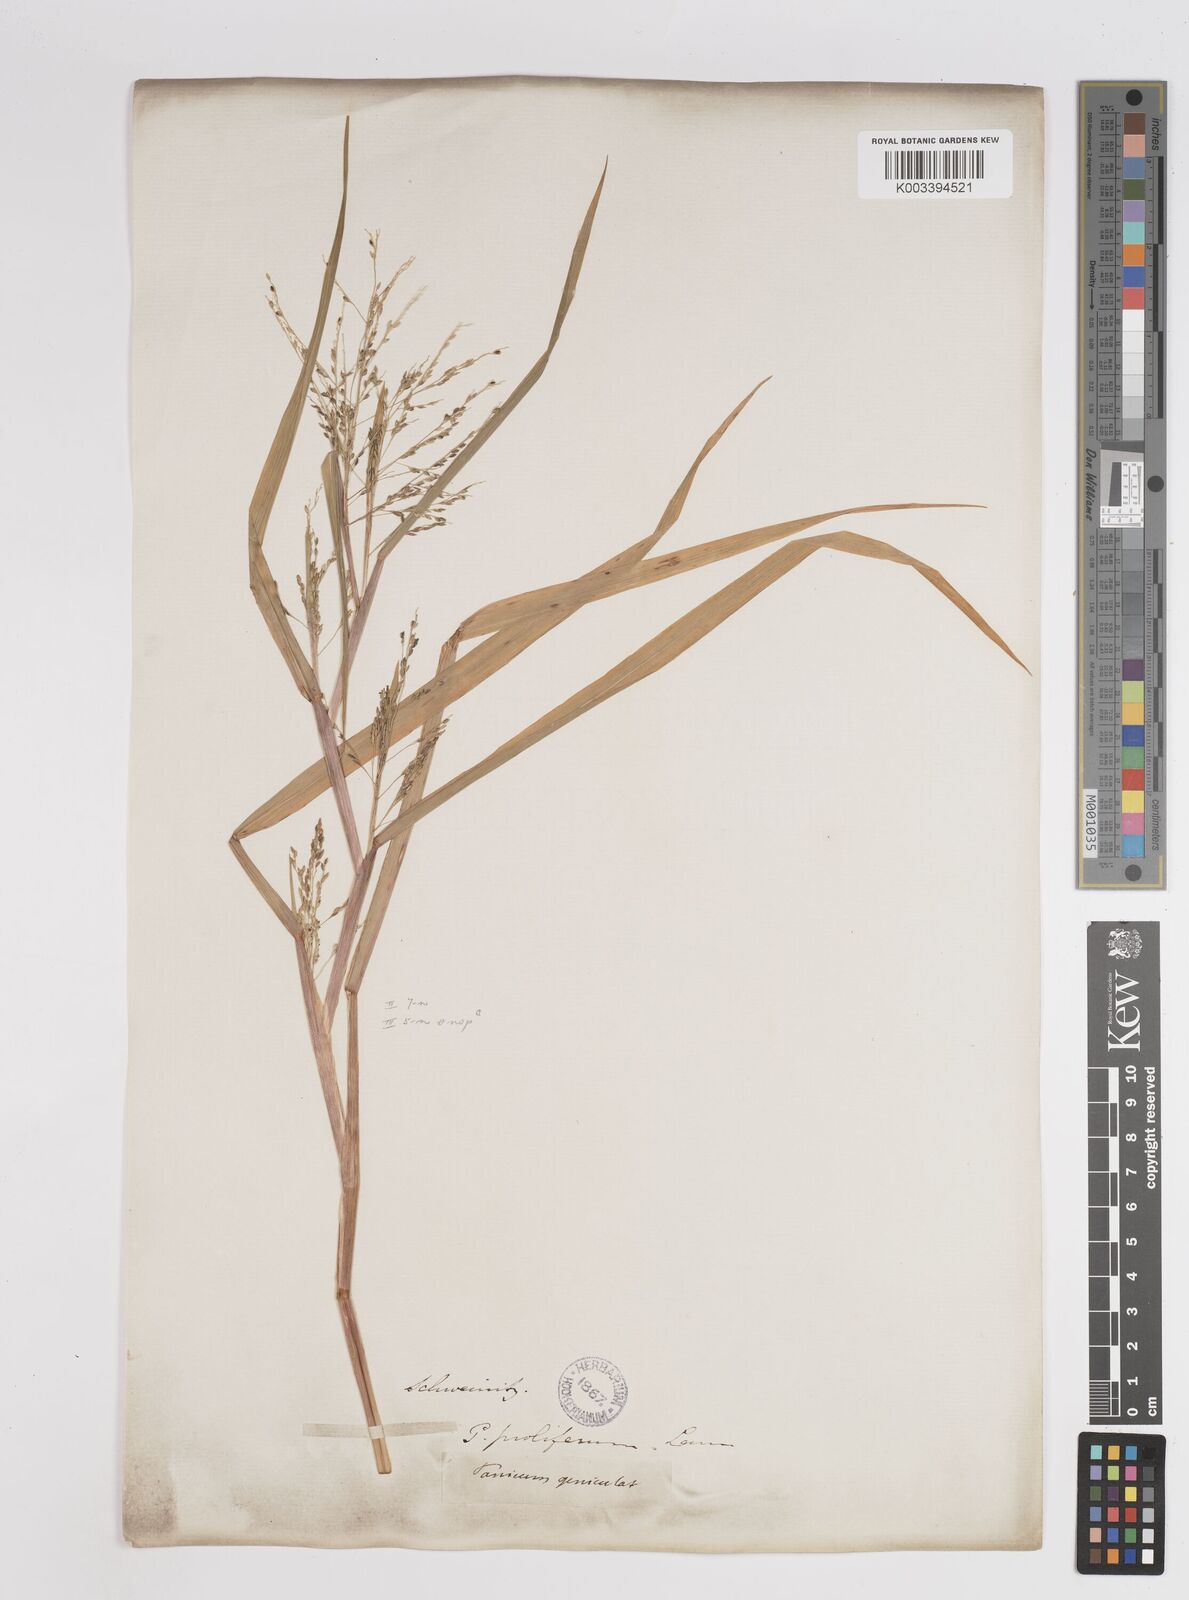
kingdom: Plantae
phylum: Tracheophyta
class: Liliopsida
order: Poales
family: Poaceae
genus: Panicum
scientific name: Panicum dichotomiflorum
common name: Autumn millet
